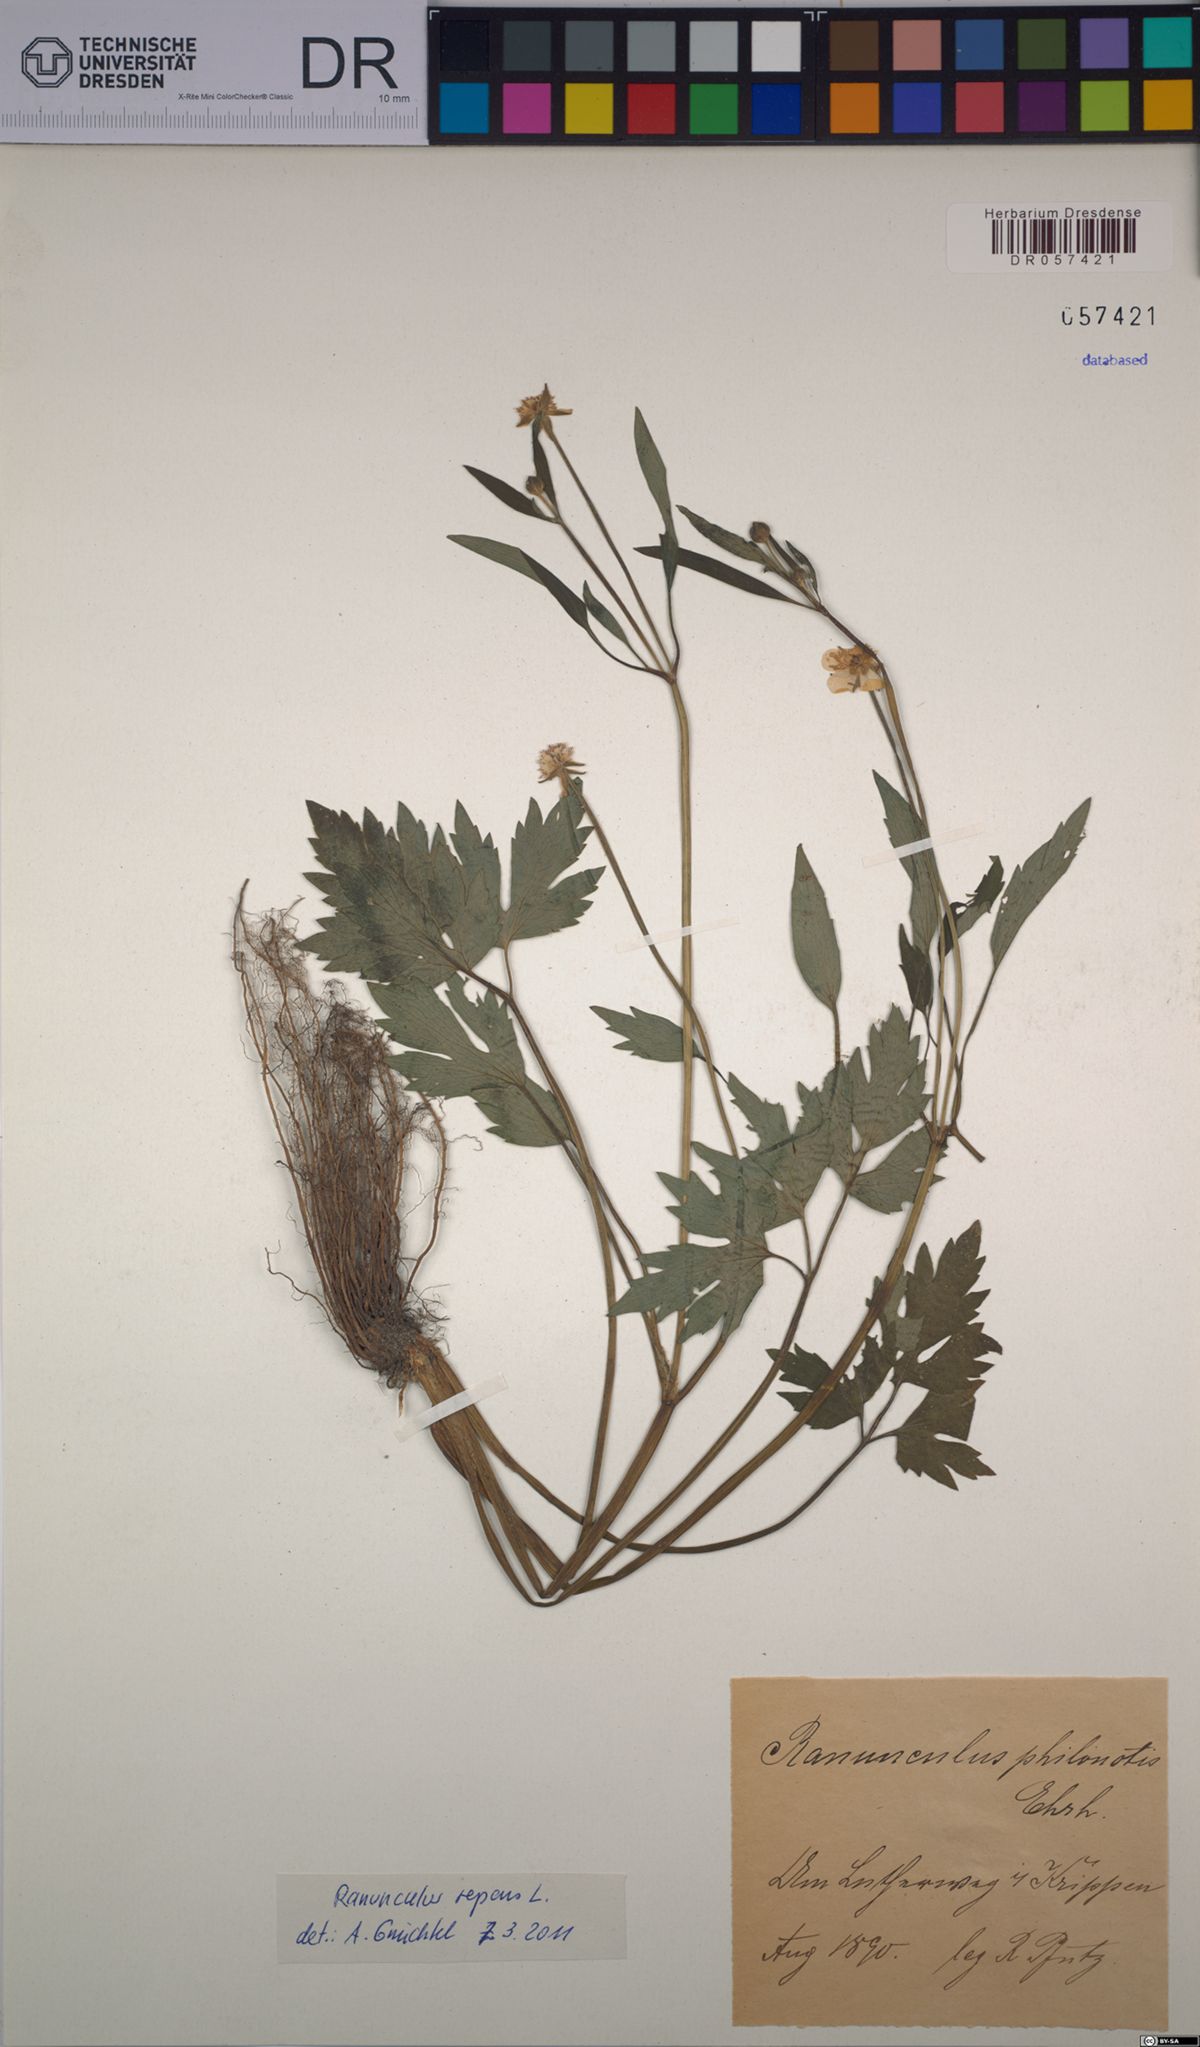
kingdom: Plantae
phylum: Tracheophyta
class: Magnoliopsida
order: Ranunculales
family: Ranunculaceae
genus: Ranunculus
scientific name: Ranunculus repens
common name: Creeping buttercup
